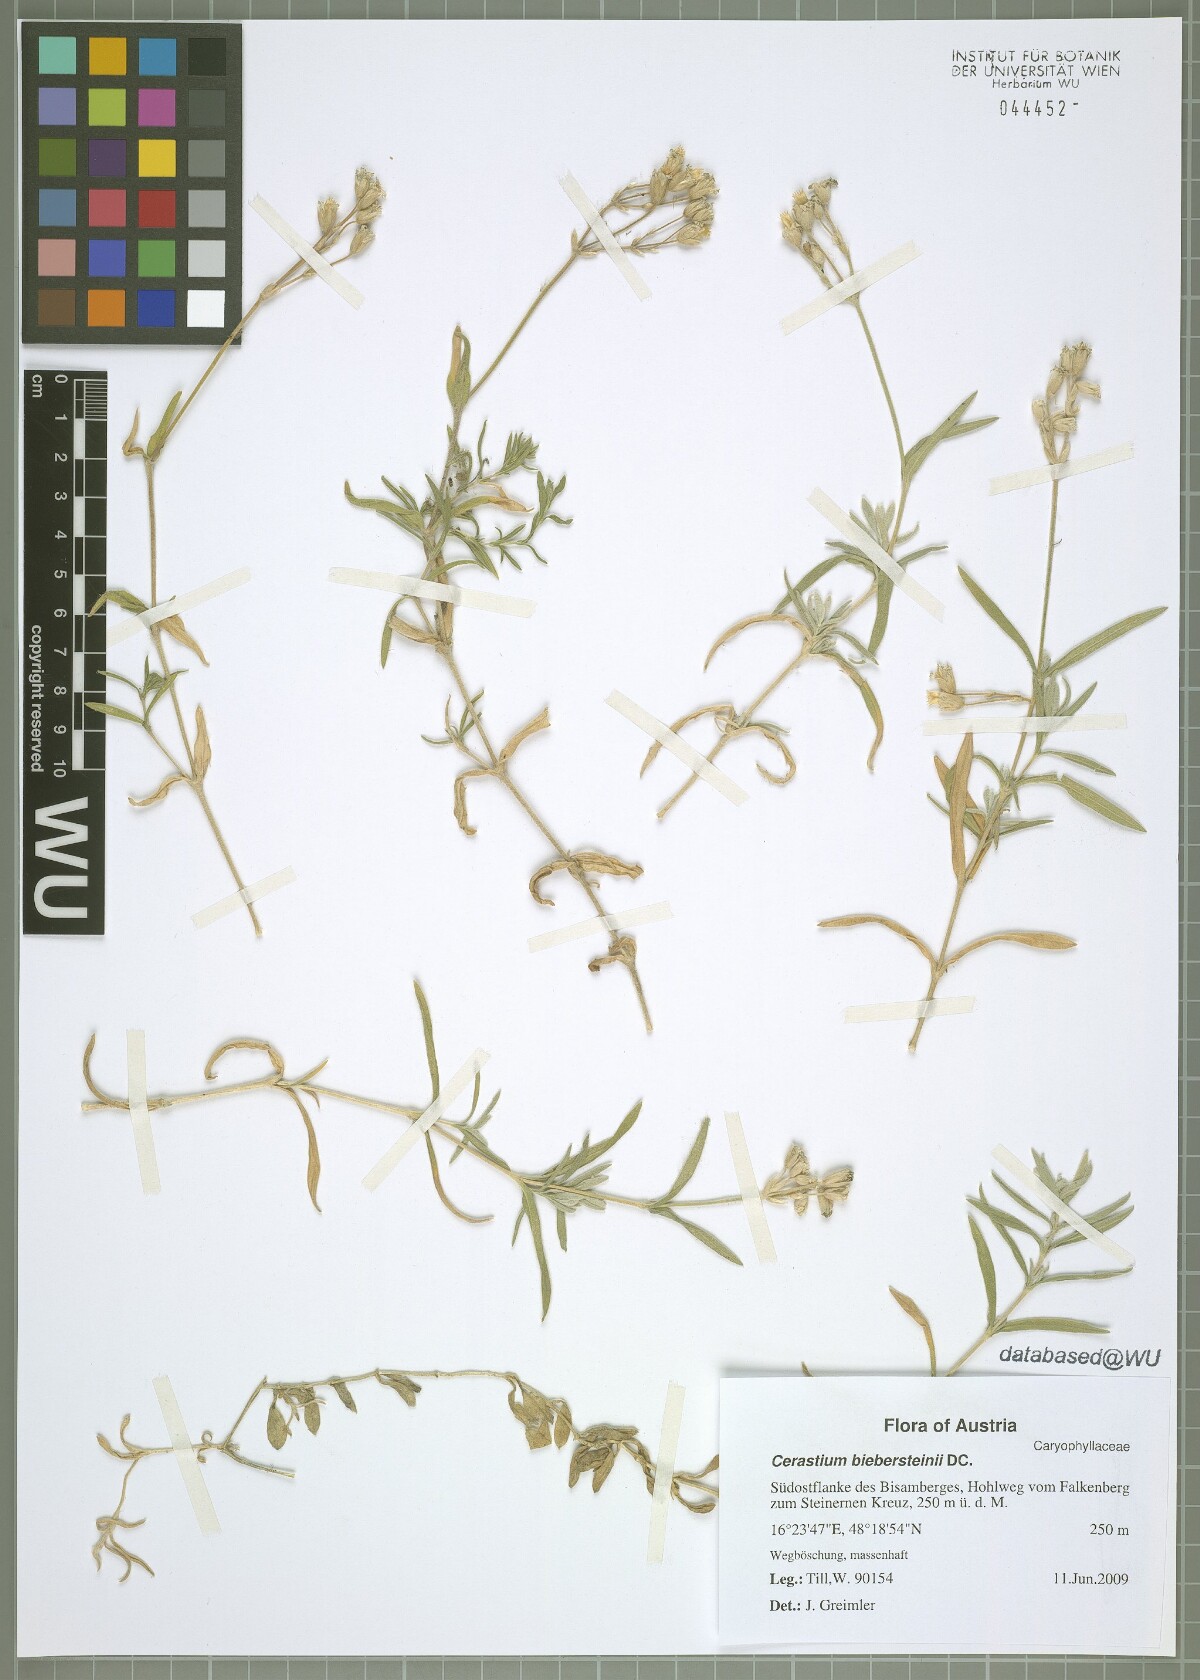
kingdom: Plantae
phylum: Tracheophyta
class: Magnoliopsida
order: Caryophyllales
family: Caryophyllaceae
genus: Cerastium
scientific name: Cerastium biebersteinii
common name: Snow-in-summer
